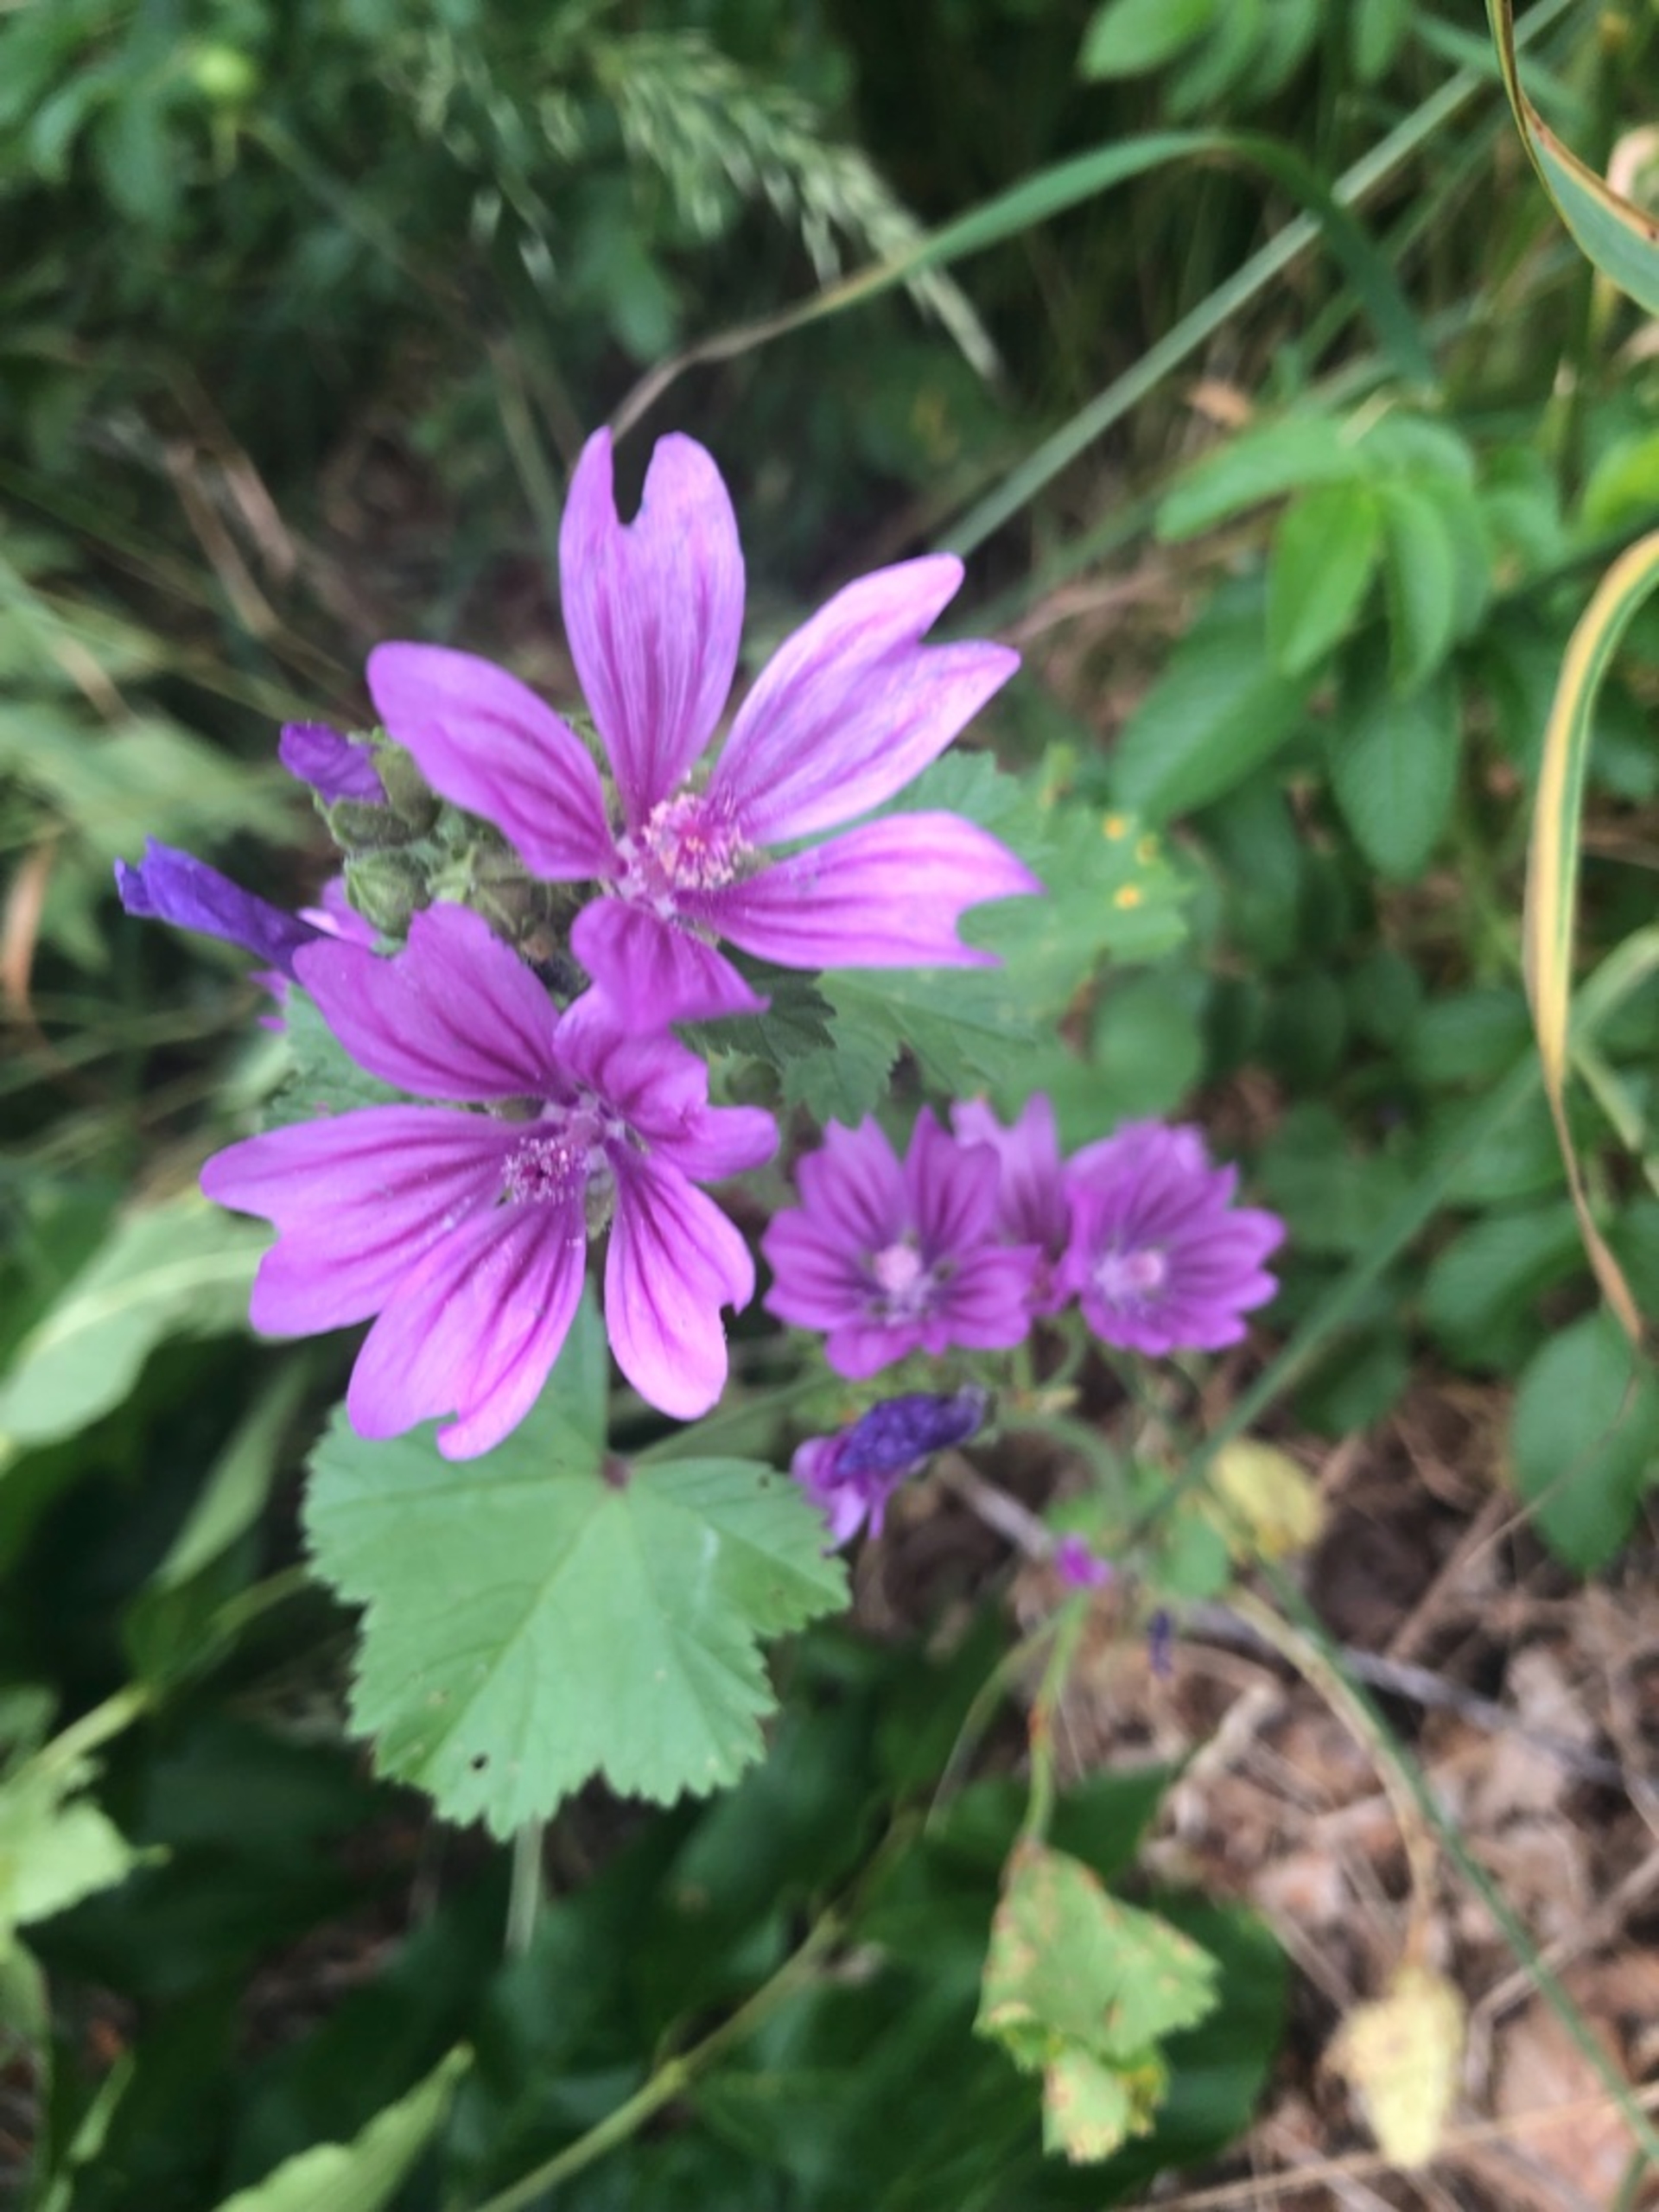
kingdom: Plantae
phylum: Tracheophyta
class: Magnoliopsida
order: Malvales
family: Malvaceae
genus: Malva
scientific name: Malva sylvestris
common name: Almindelig katost
